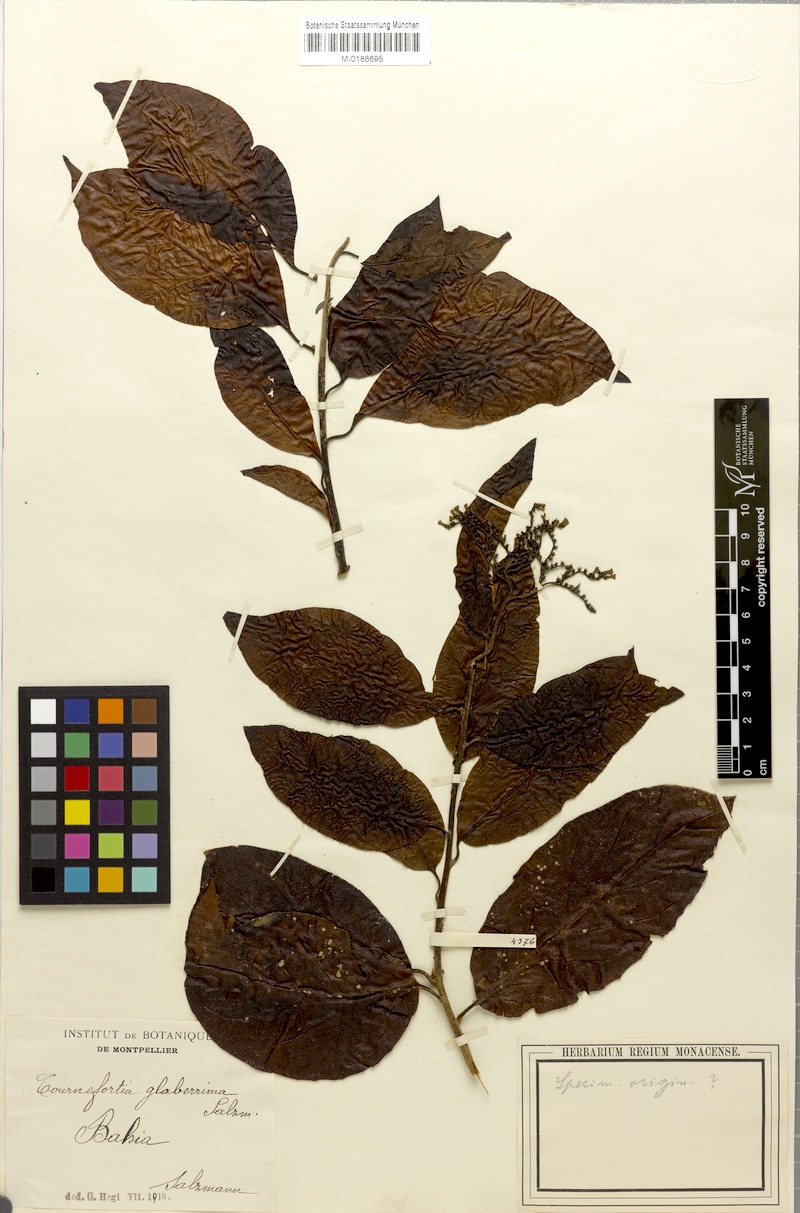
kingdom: Plantae
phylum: Tracheophyta
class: Magnoliopsida
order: Boraginales
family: Heliotropiaceae
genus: Heliotropium
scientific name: Heliotropium verdcourtii
